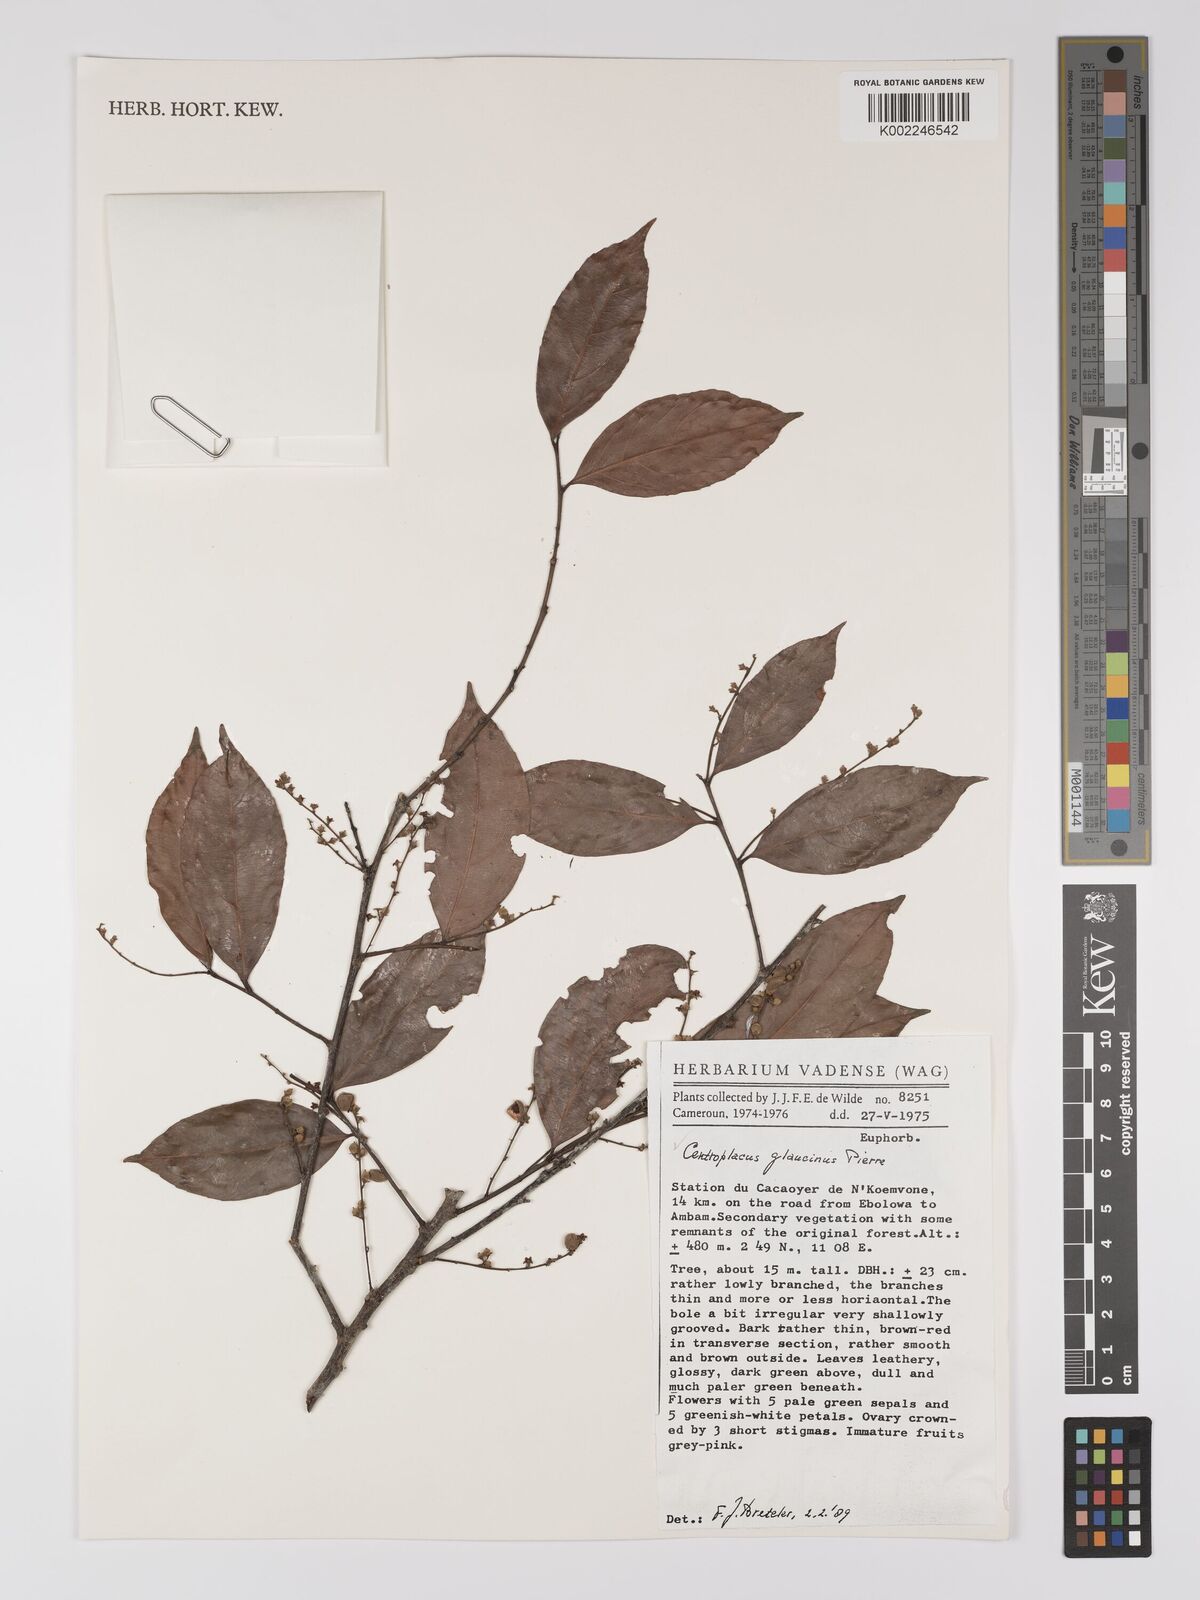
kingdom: Plantae
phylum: Tracheophyta
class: Magnoliopsida
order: Malpighiales
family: Centroplacaceae
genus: Centroplacus
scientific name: Centroplacus glaucinus
